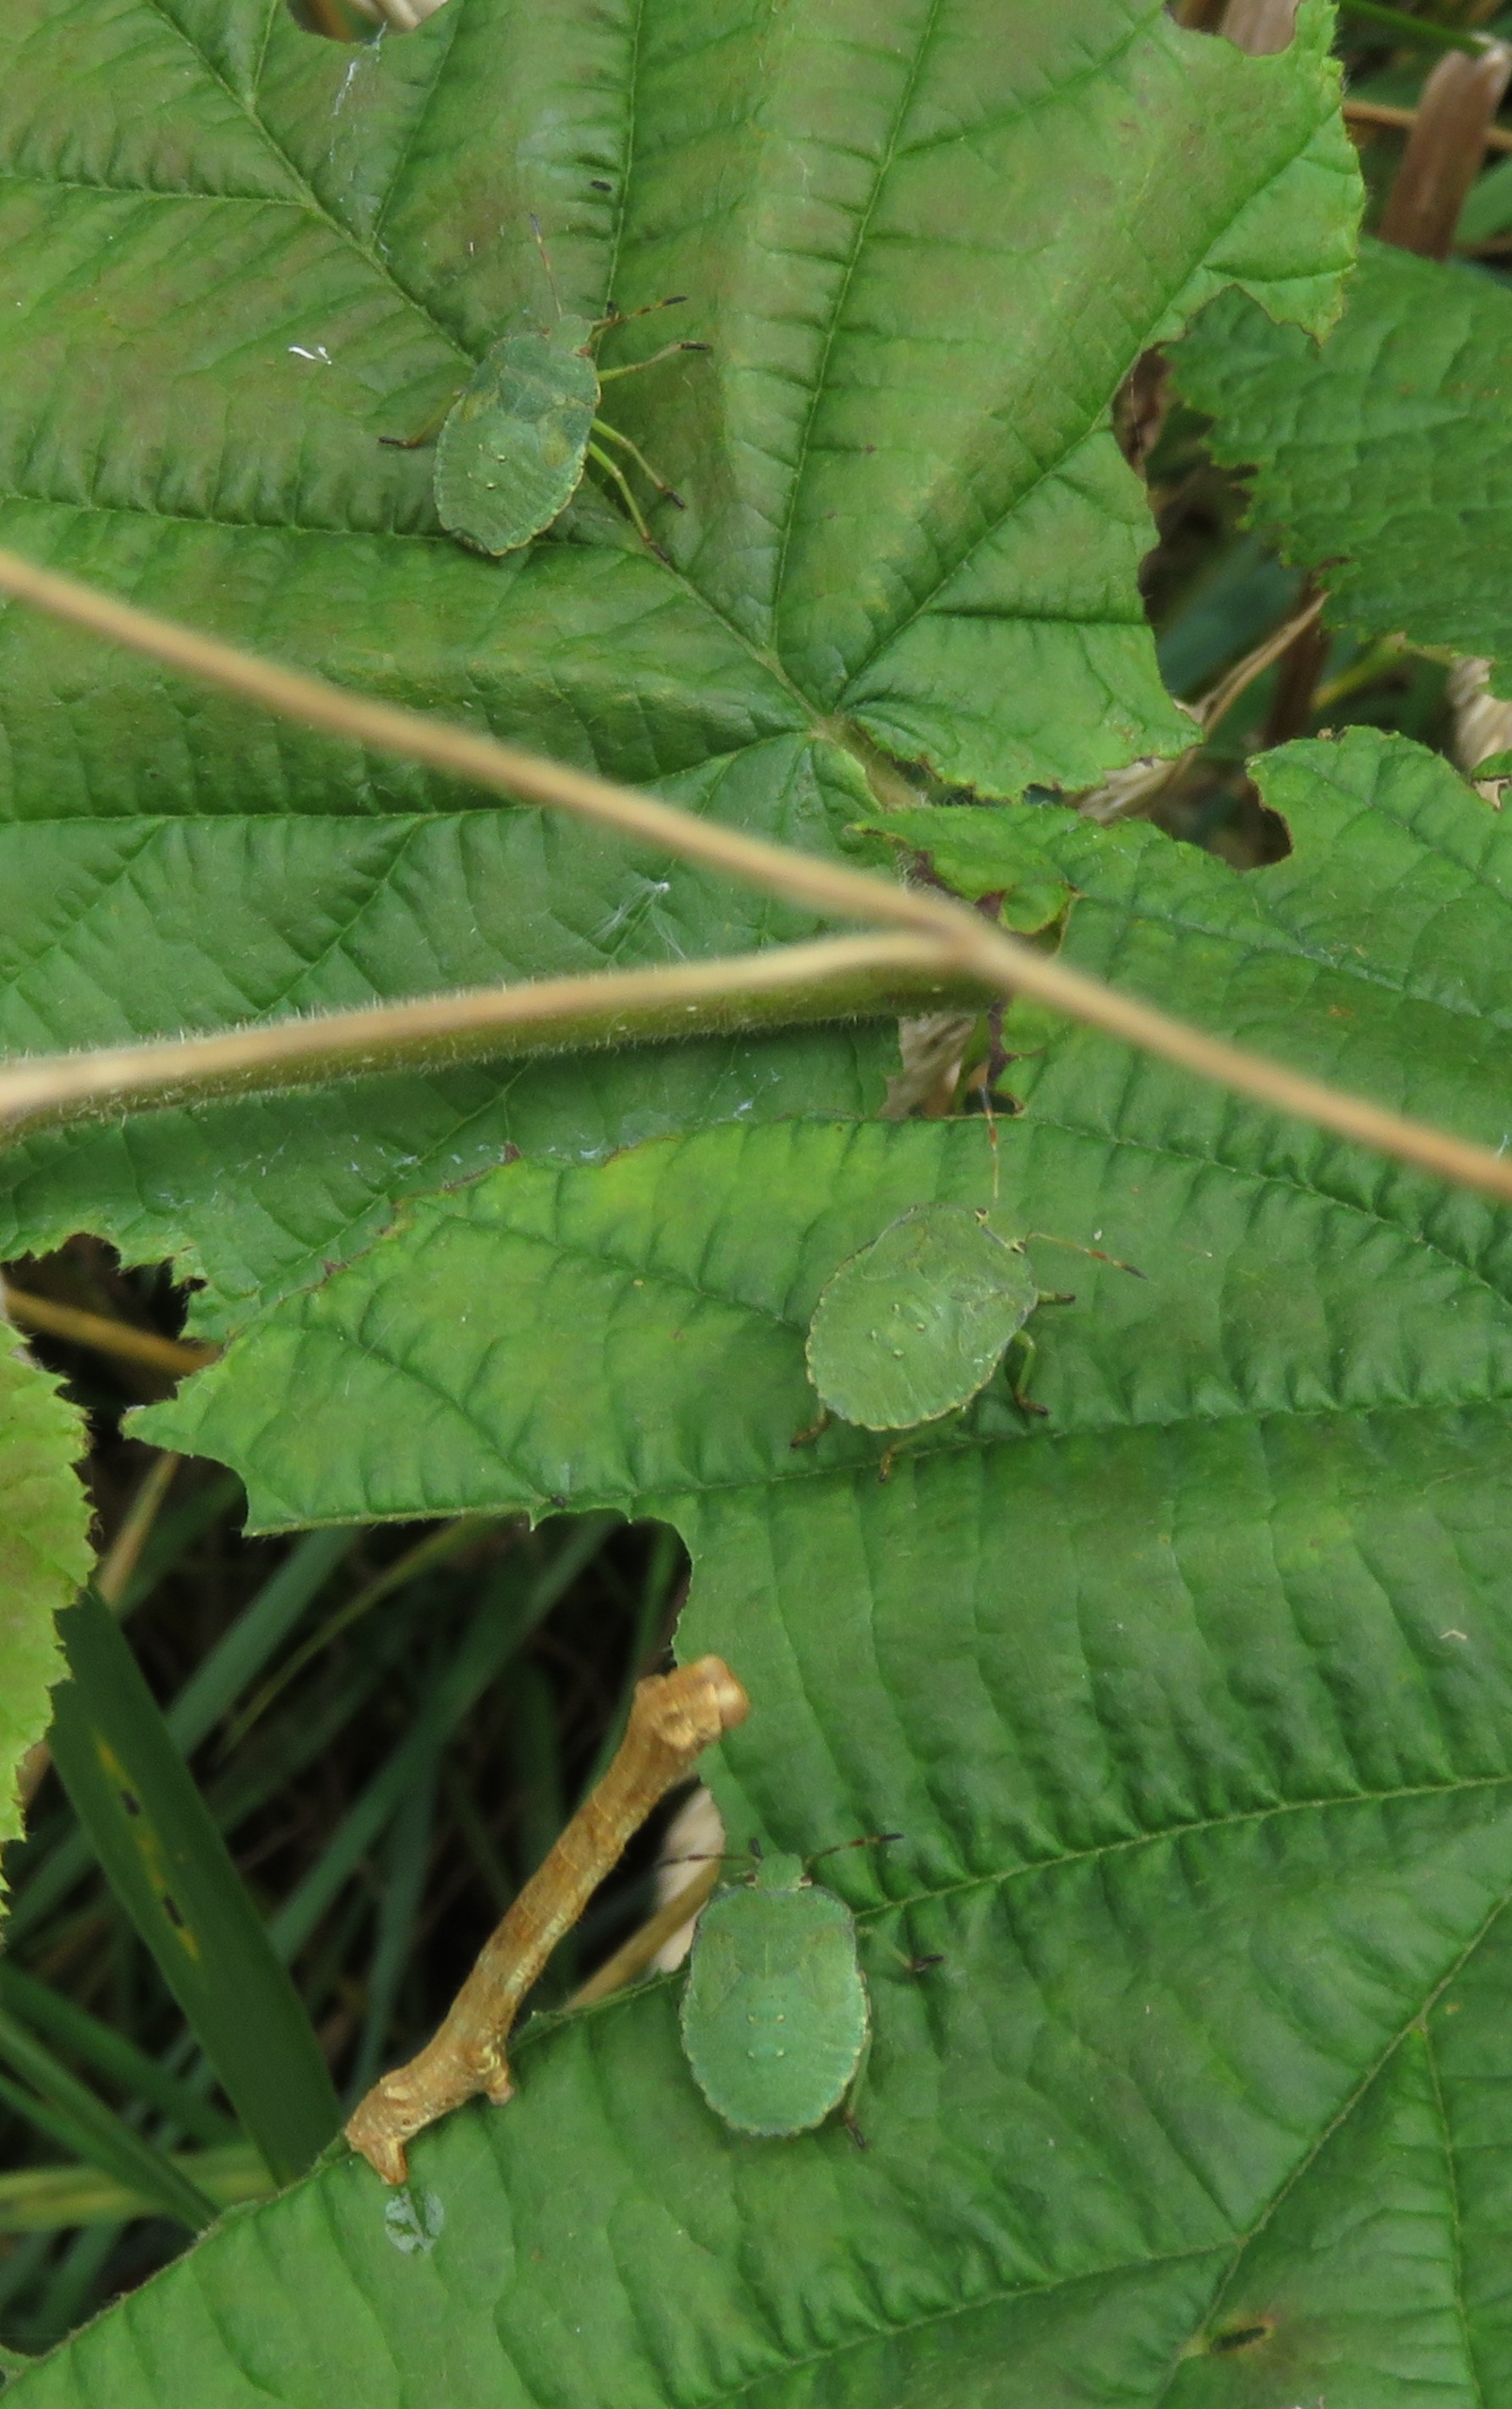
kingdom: Animalia
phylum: Arthropoda
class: Insecta
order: Hemiptera
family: Pentatomidae
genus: Palomena
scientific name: Palomena prasina
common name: Grøn bredtæge
